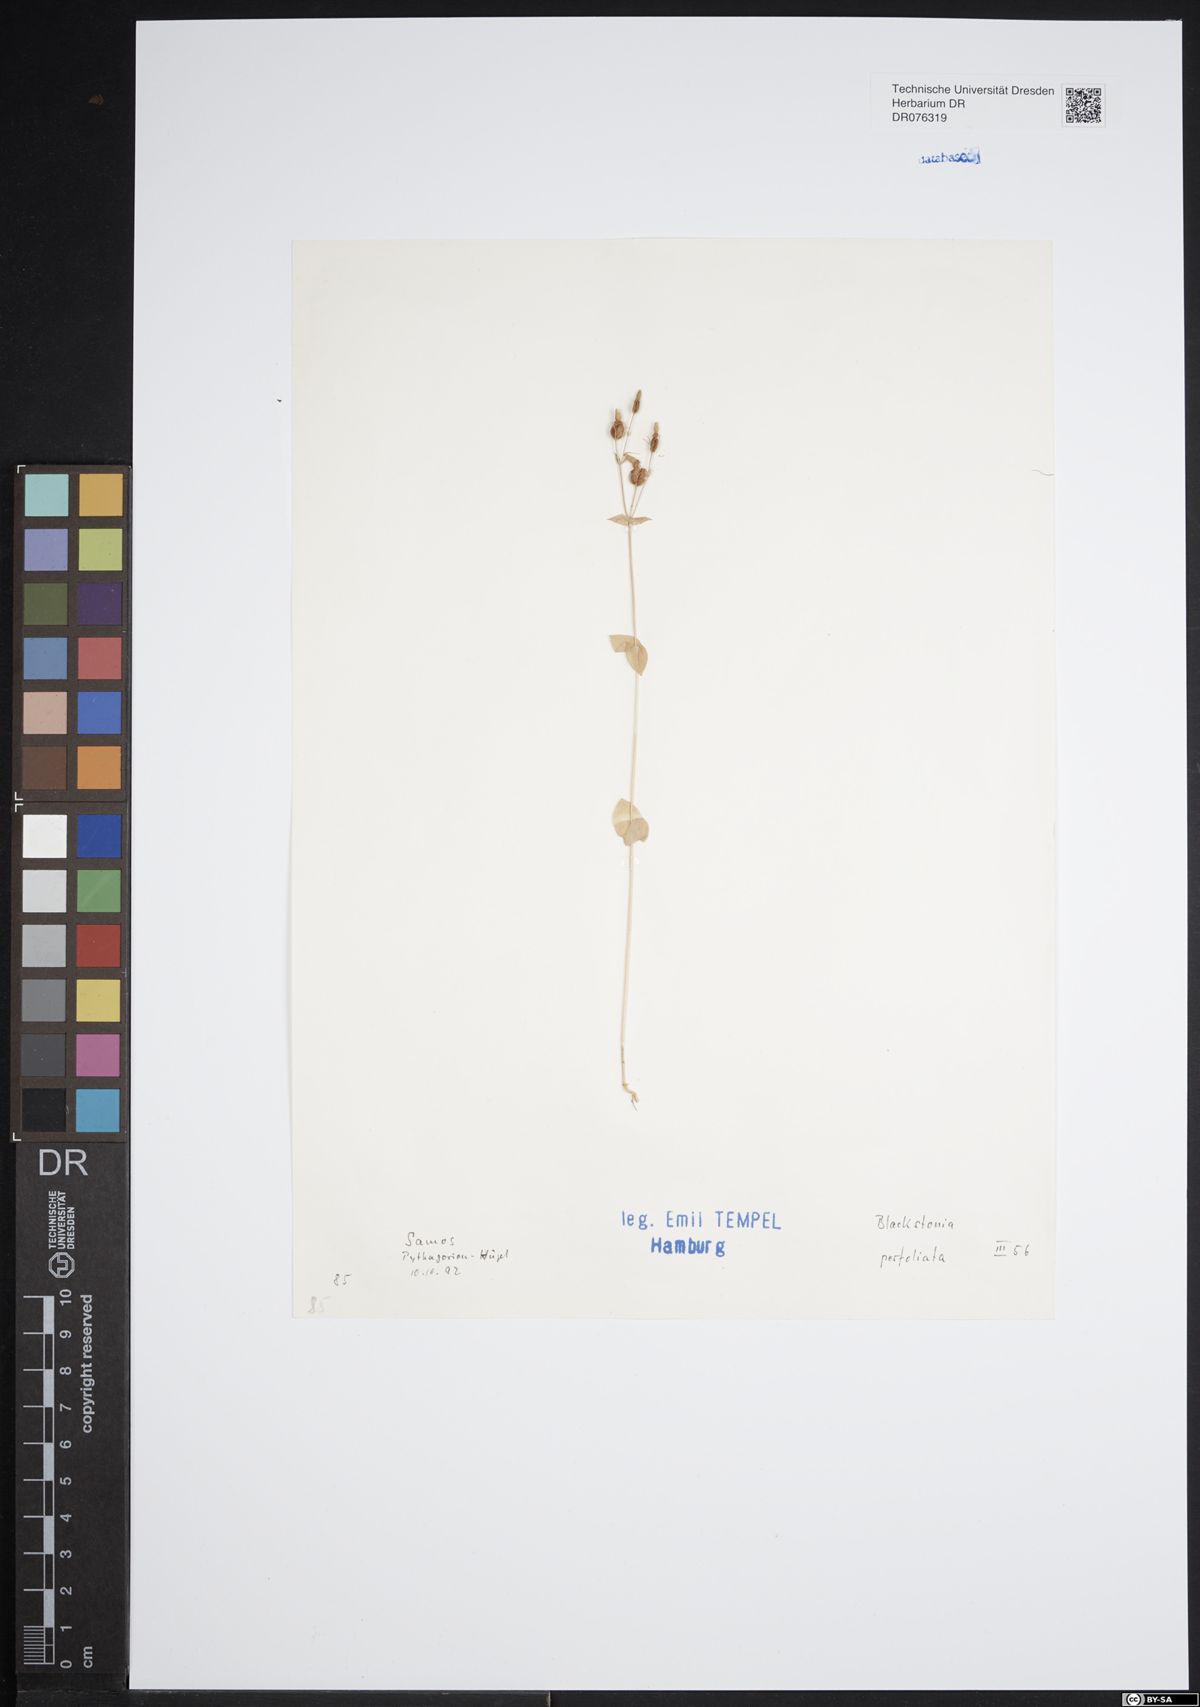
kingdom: Plantae
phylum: Tracheophyta
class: Magnoliopsida
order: Gentianales
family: Gentianaceae
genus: Blackstonia
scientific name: Blackstonia perfoliata
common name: Yellow-wort
